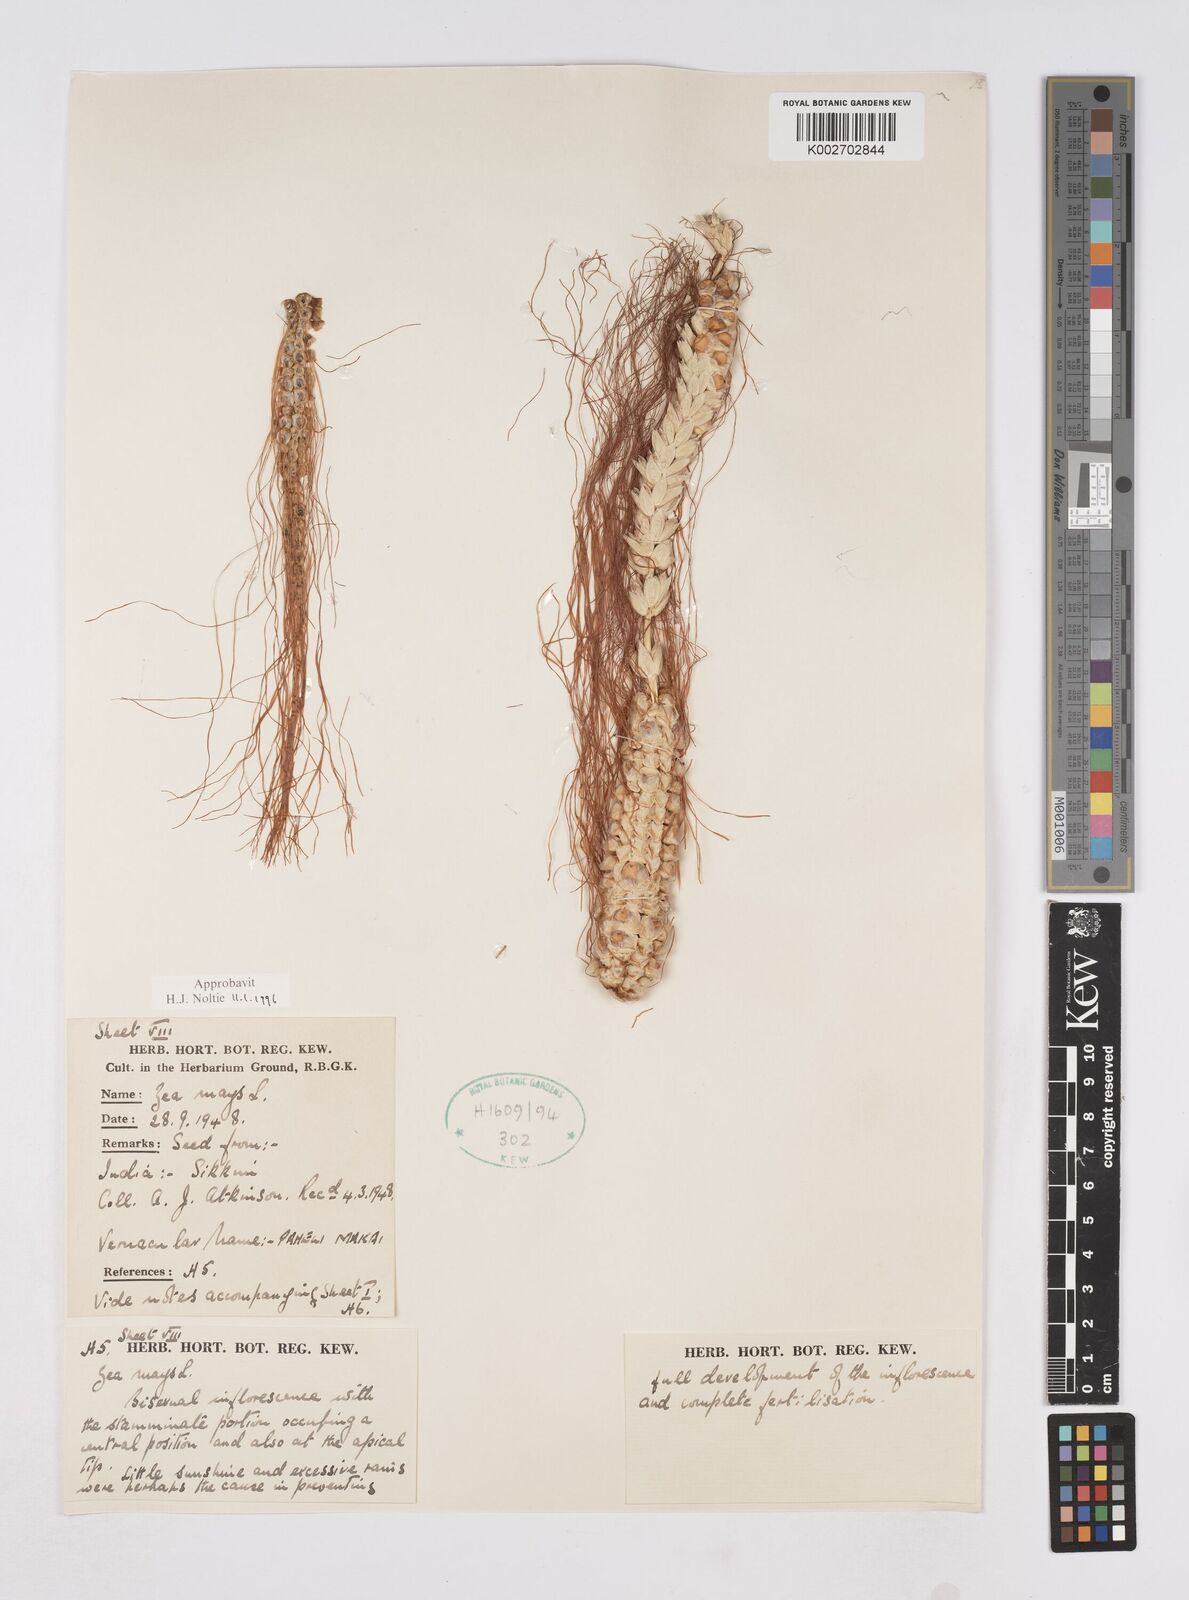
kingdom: Plantae
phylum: Tracheophyta
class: Liliopsida
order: Poales
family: Poaceae
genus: Zea
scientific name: Zea mays
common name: Maize
